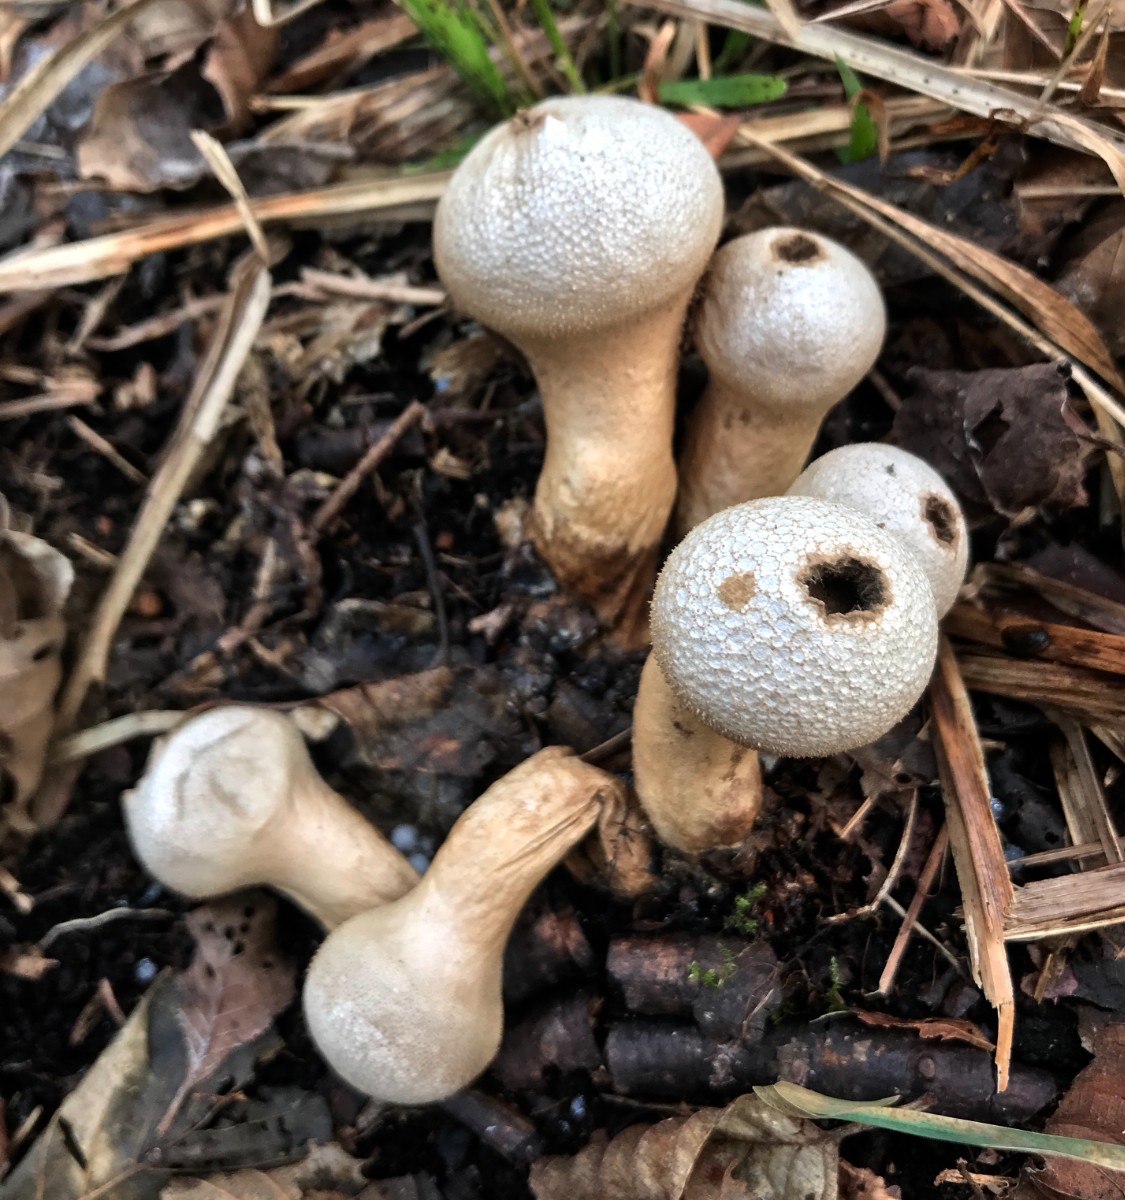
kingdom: Fungi
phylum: Basidiomycota
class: Agaricomycetes
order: Agaricales
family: Lycoperdaceae
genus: Lycoperdon
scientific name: Lycoperdon perlatum
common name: krystal-støvbold
